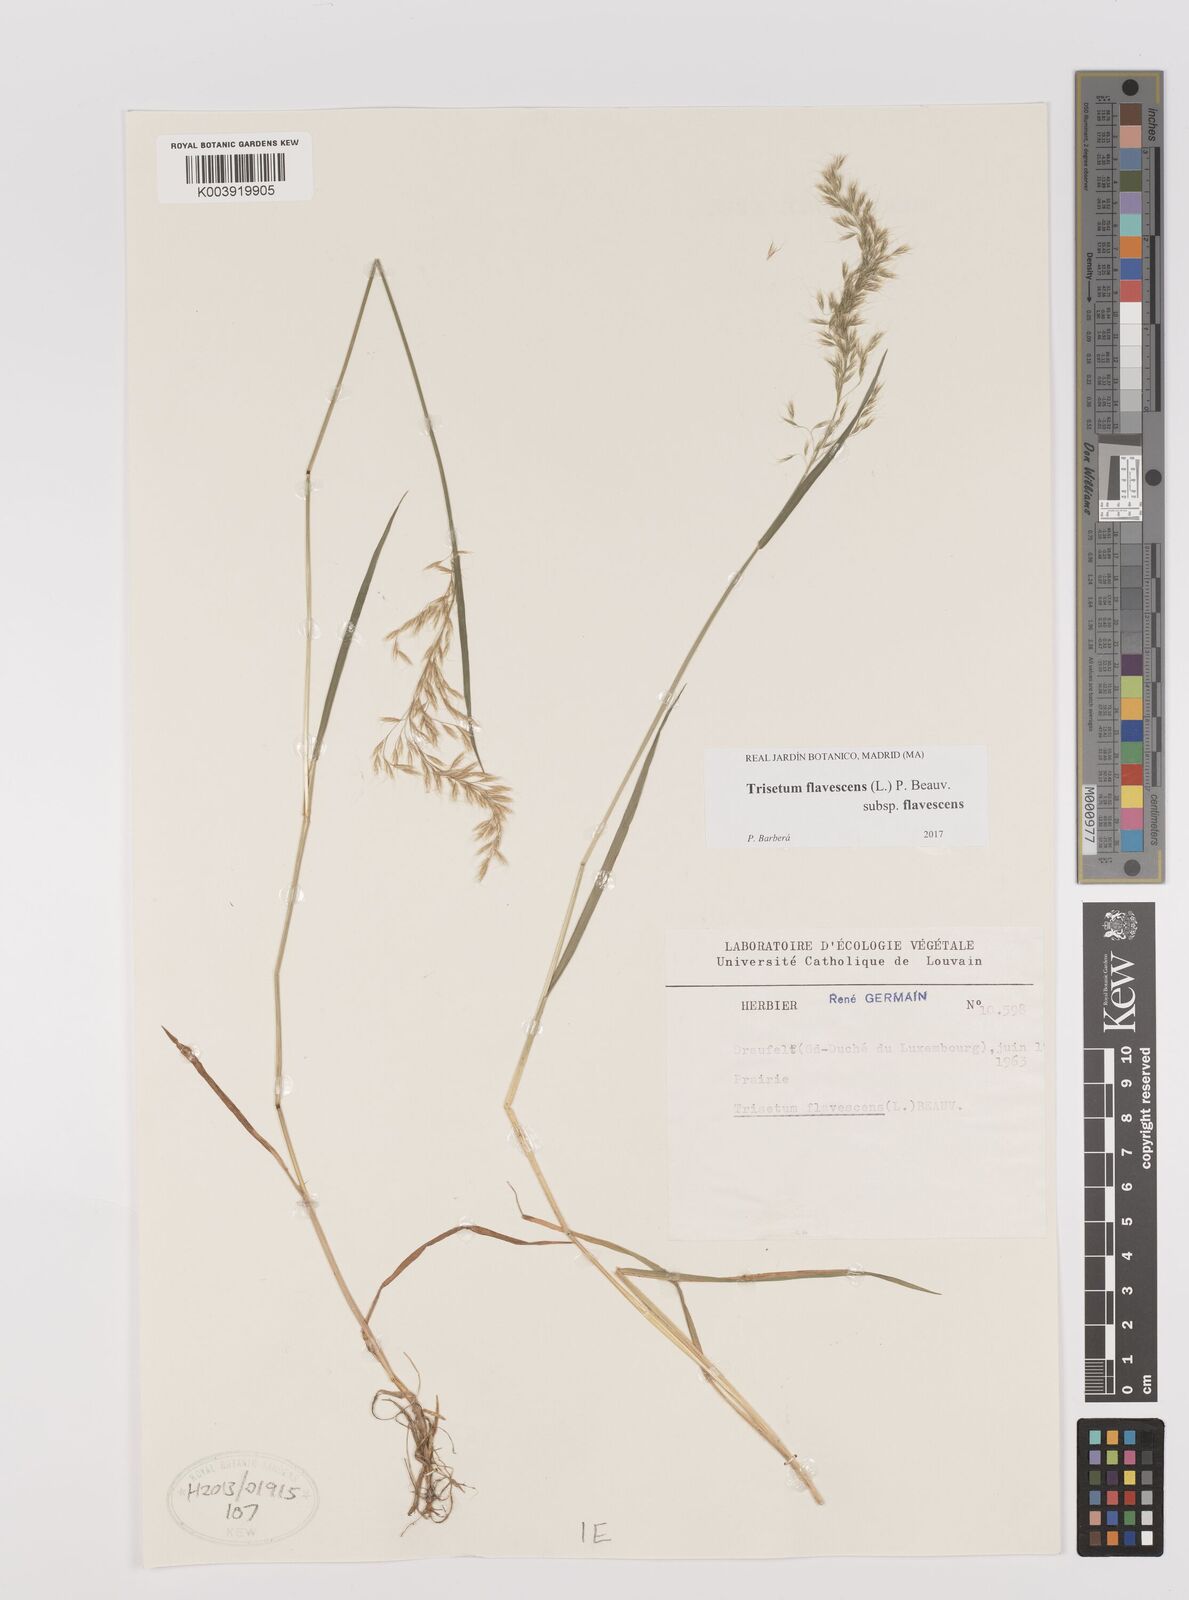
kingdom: Plantae
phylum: Tracheophyta
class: Liliopsida
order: Poales
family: Poaceae
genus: Trisetum
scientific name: Trisetum flavescens
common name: Yellow oat-grass
